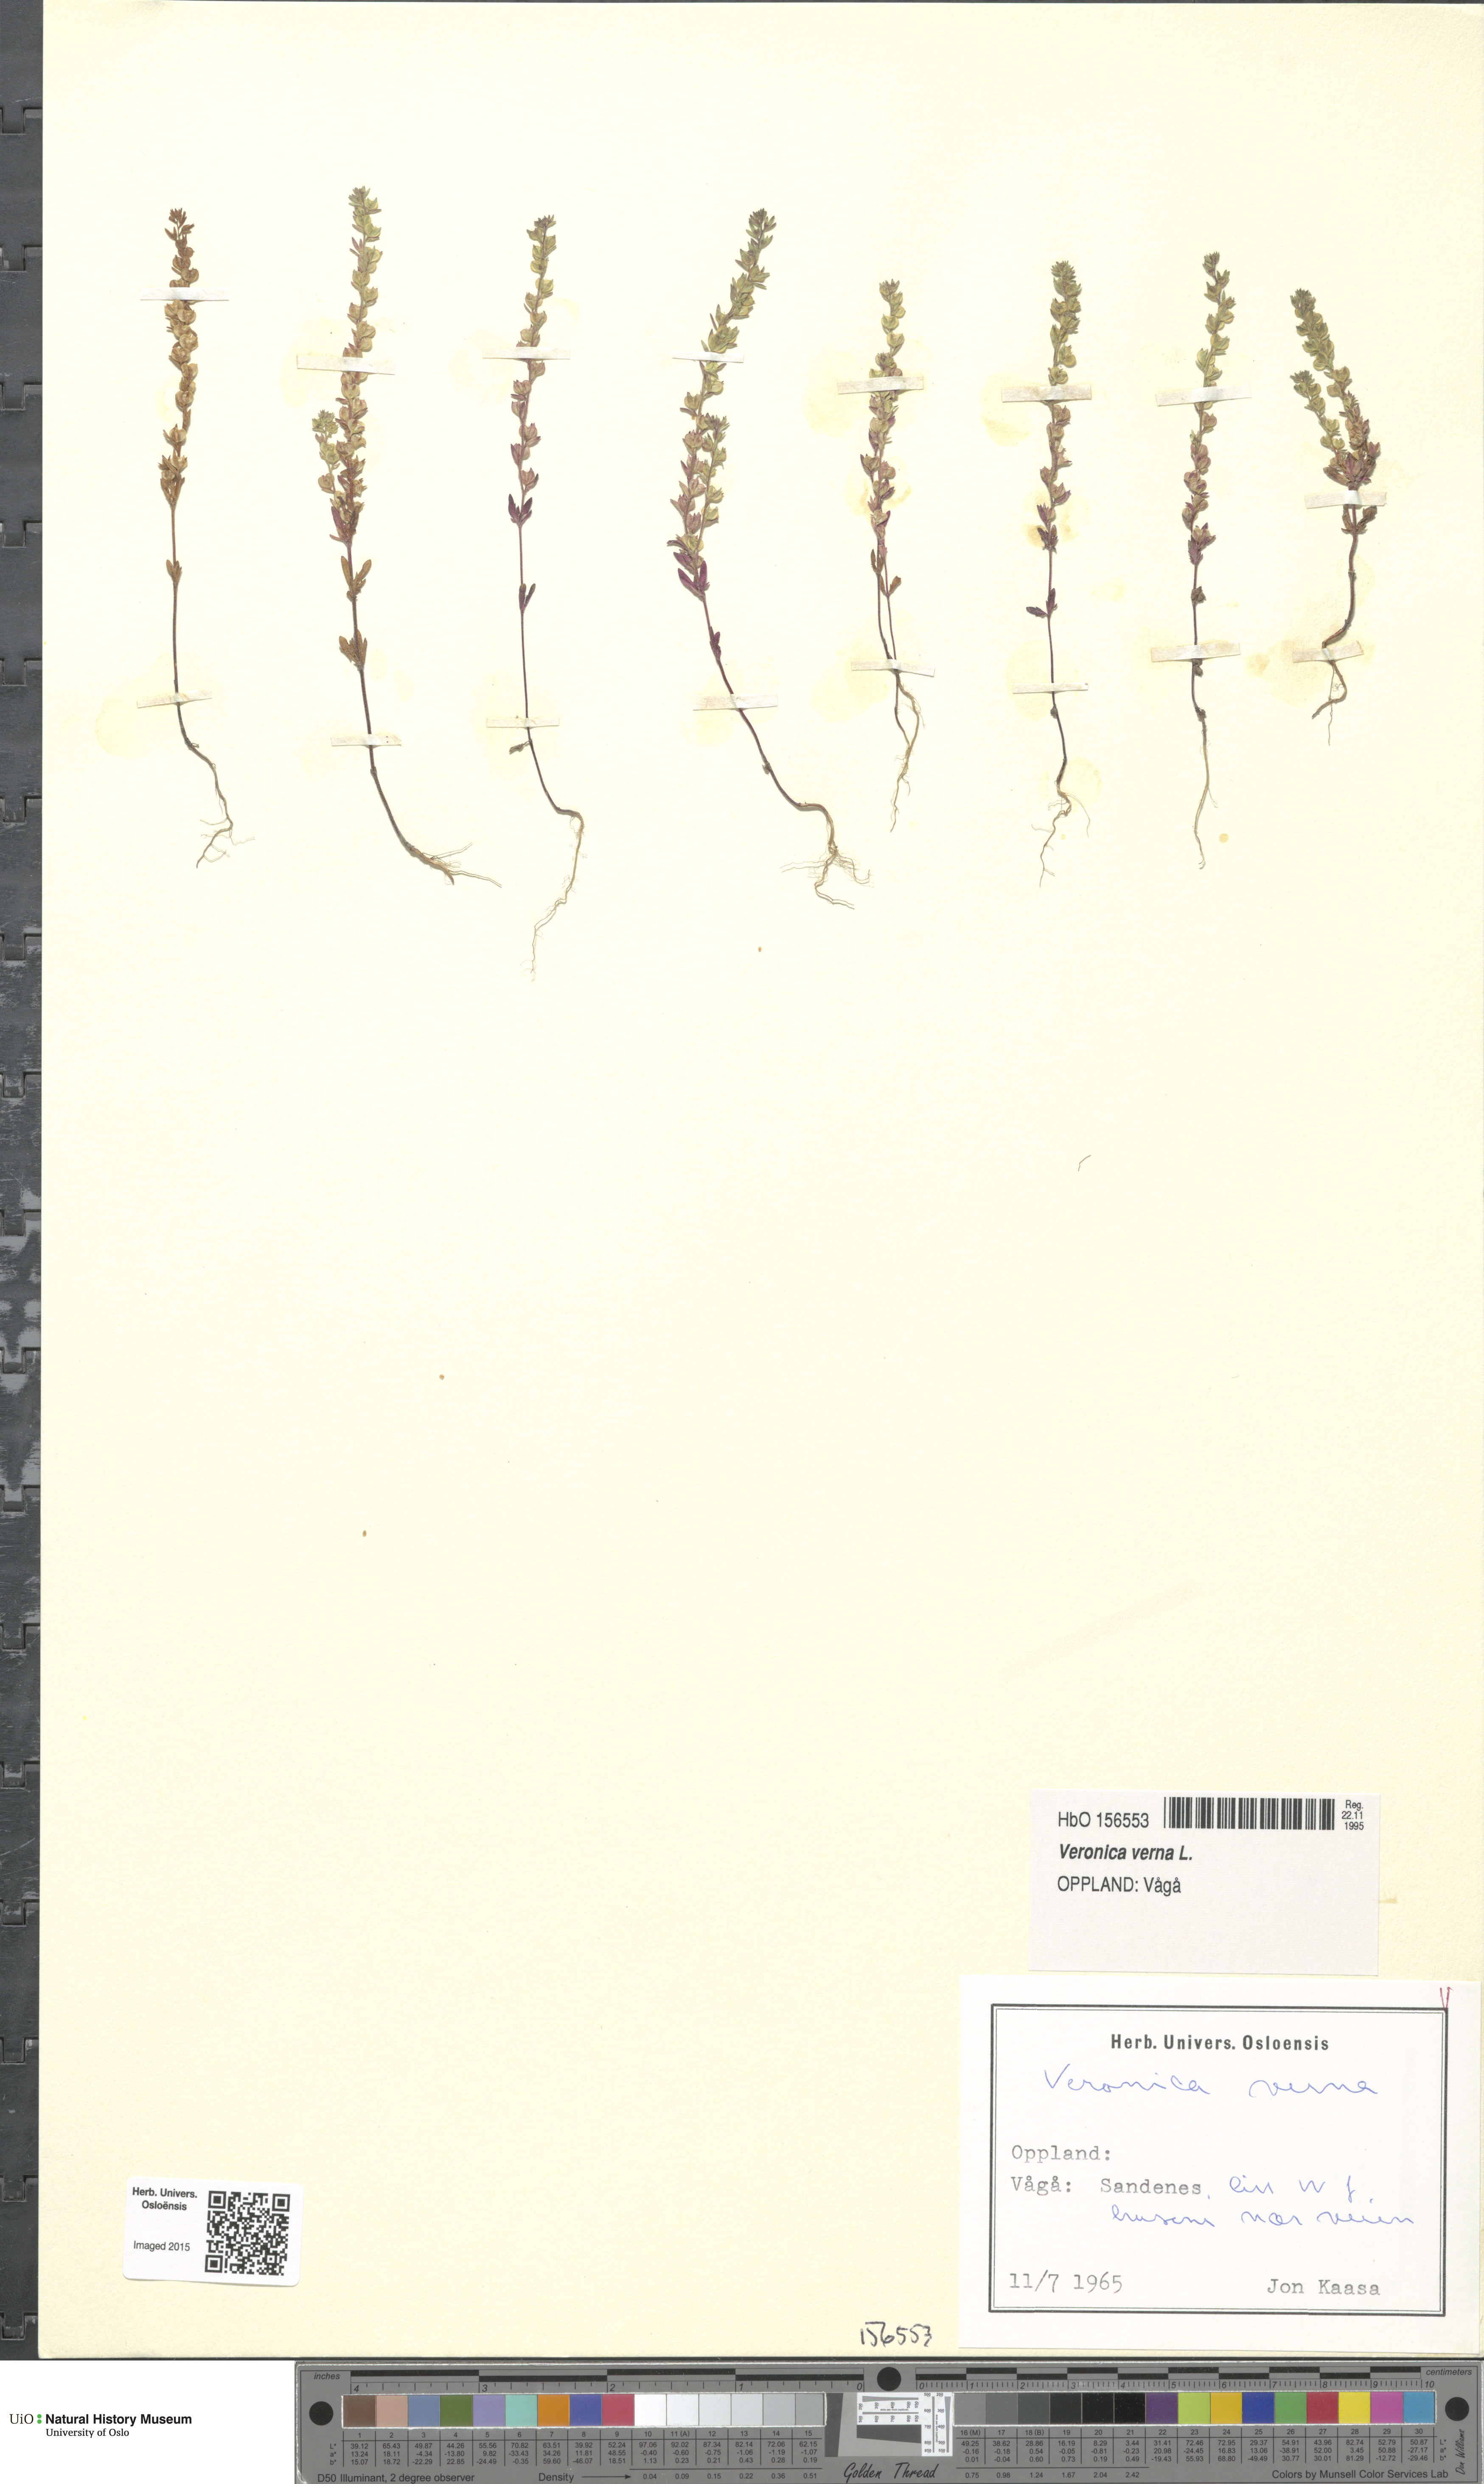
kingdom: Plantae
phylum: Tracheophyta
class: Magnoliopsida
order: Lamiales
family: Plantaginaceae
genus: Veronica
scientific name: Veronica verna
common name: Spring speedwell
